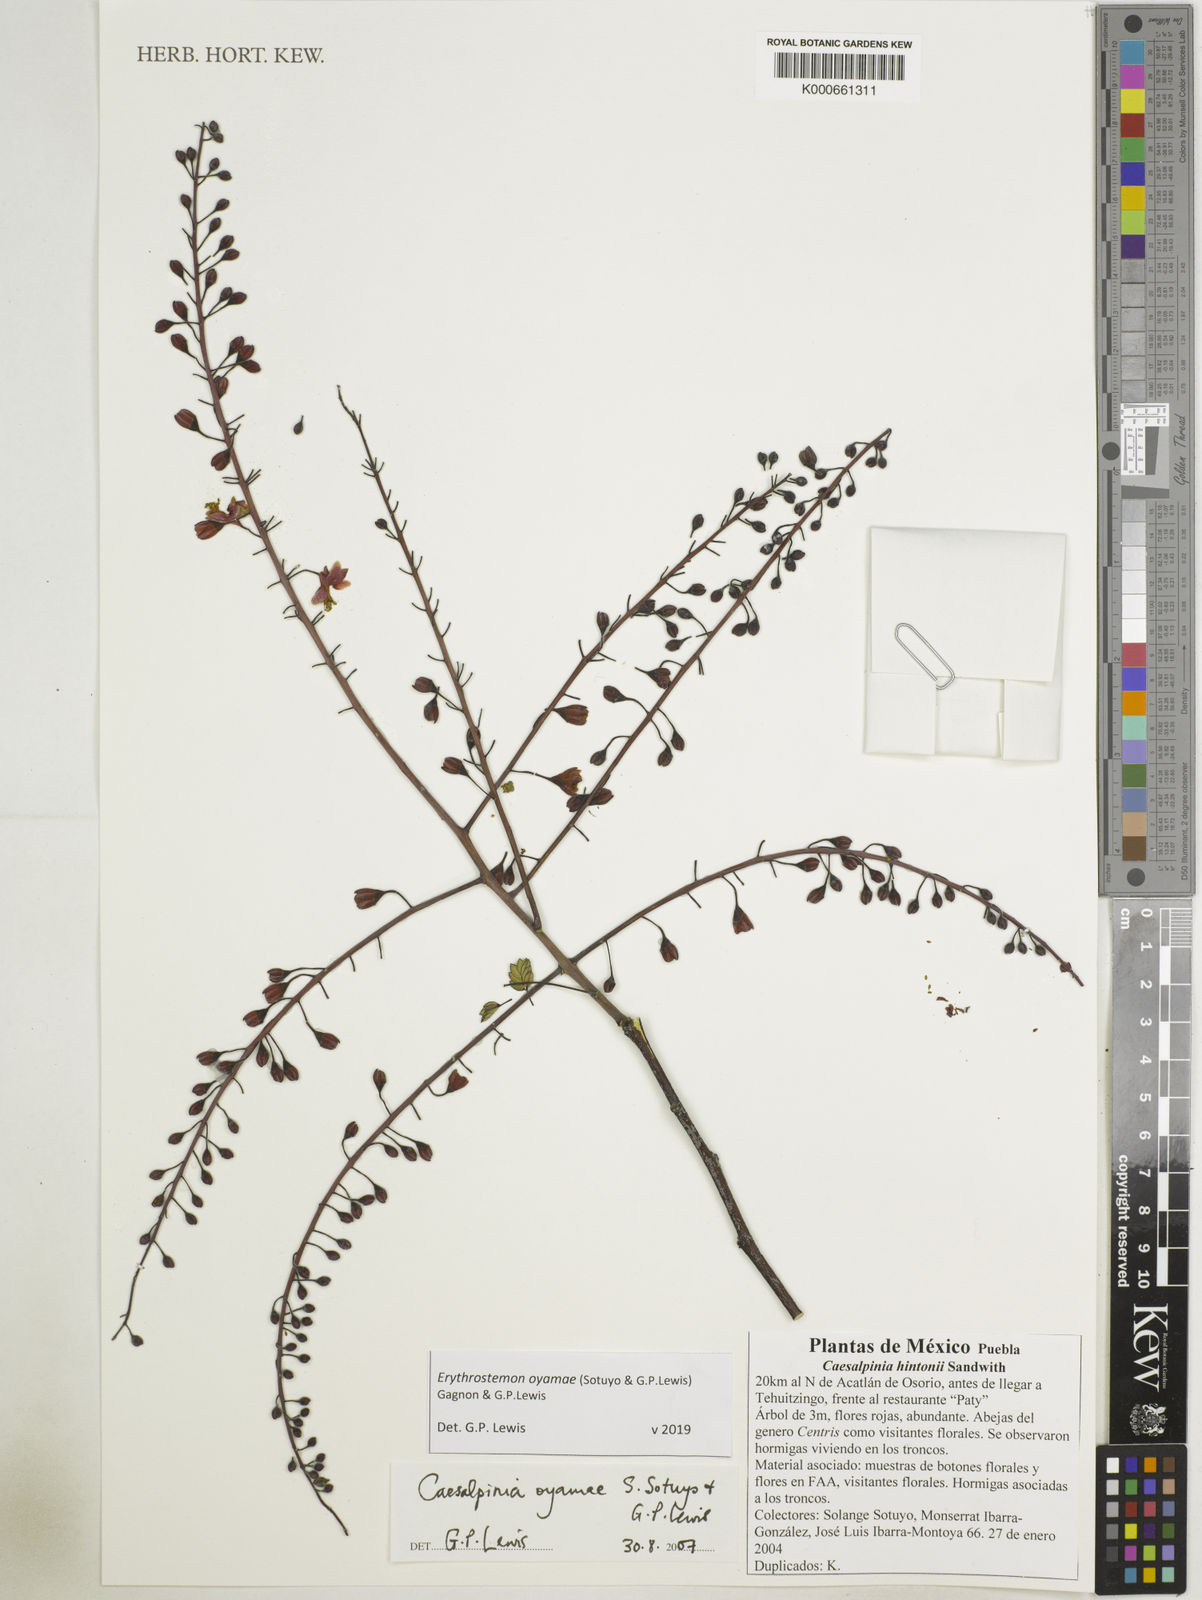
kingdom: Plantae
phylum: Tracheophyta
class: Magnoliopsida
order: Fabales
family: Fabaceae
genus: Erythrostemon
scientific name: Erythrostemon oyamae
